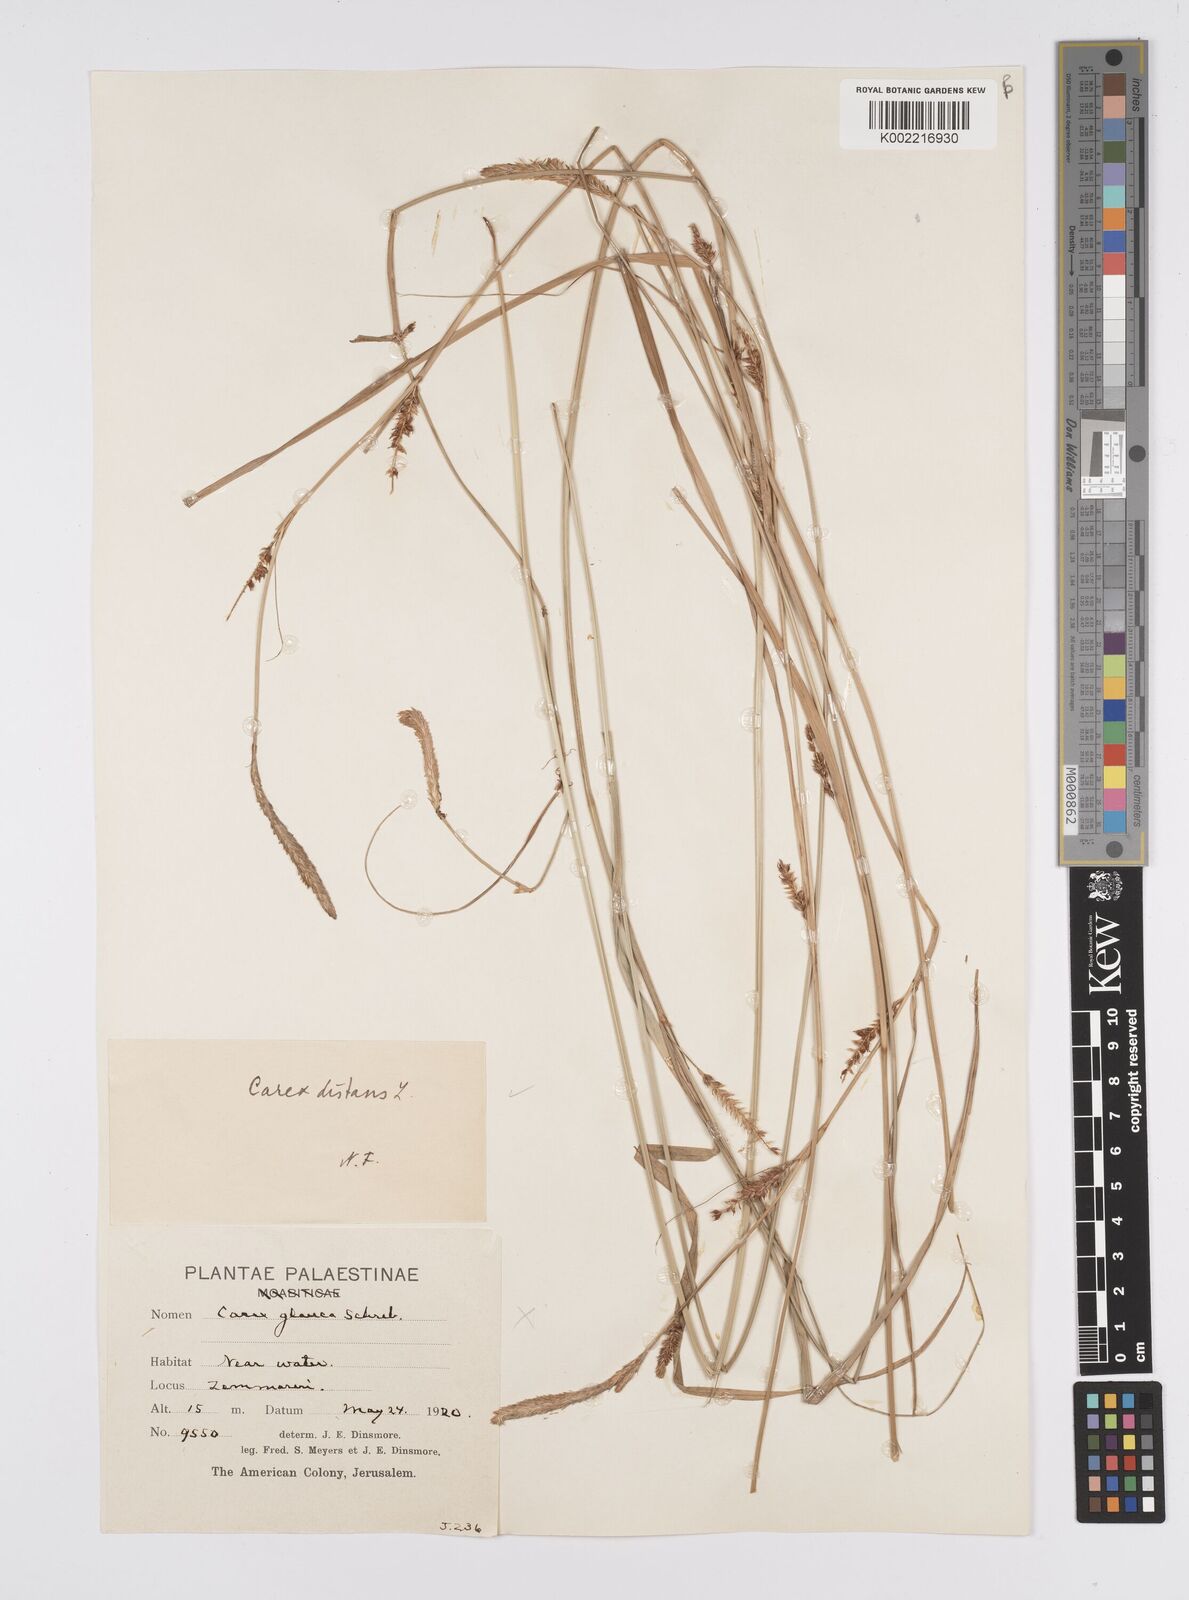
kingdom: Plantae
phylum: Tracheophyta
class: Liliopsida
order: Poales
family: Cyperaceae
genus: Carex
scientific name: Carex distans
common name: Distant sedge
